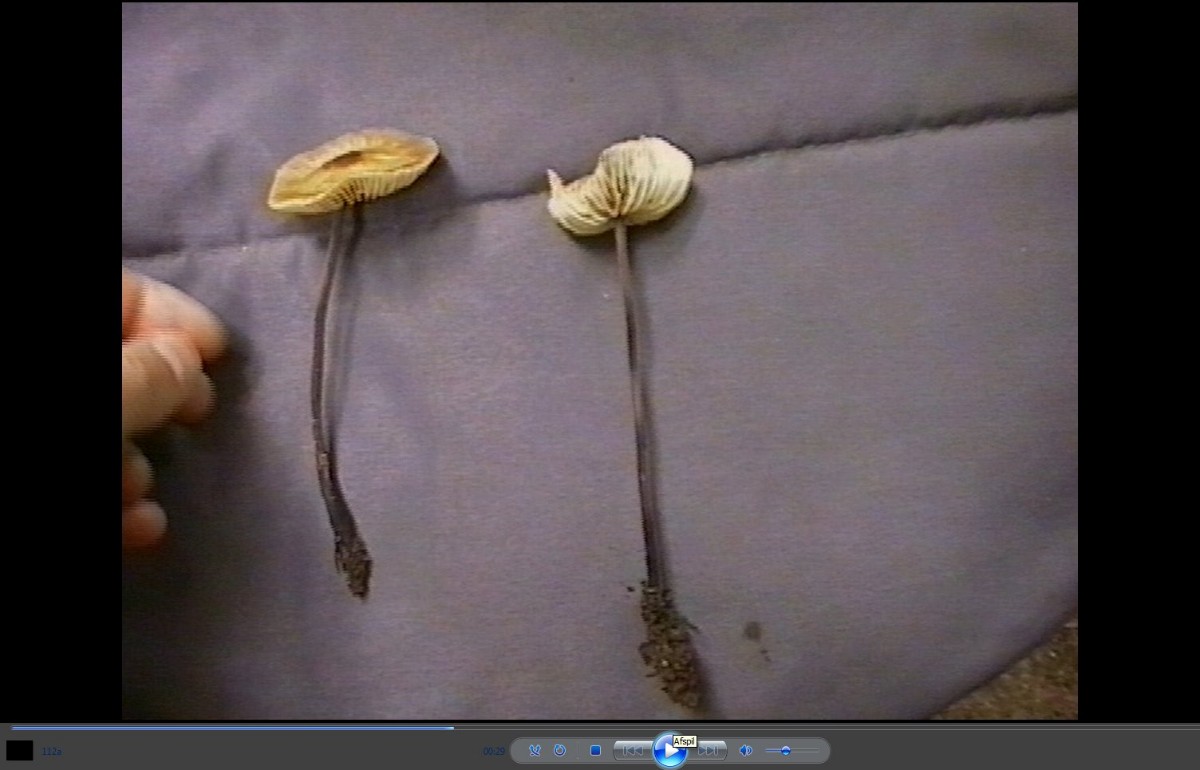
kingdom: Fungi
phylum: Basidiomycota
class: Agaricomycetes
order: Agaricales
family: Omphalotaceae
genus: Mycetinis
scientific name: Mycetinis alliaceus
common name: stor løghat
